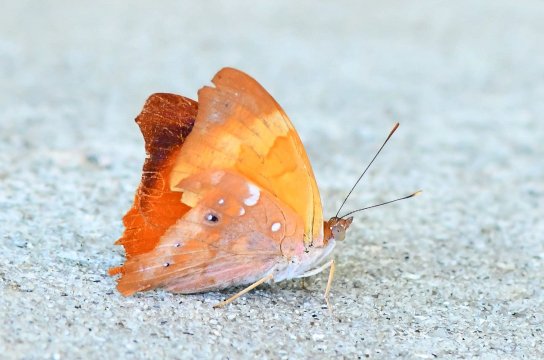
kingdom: Animalia
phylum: Arthropoda
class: Insecta
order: Lepidoptera
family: Nymphalidae
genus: Temenis
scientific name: Temenis laothoe
